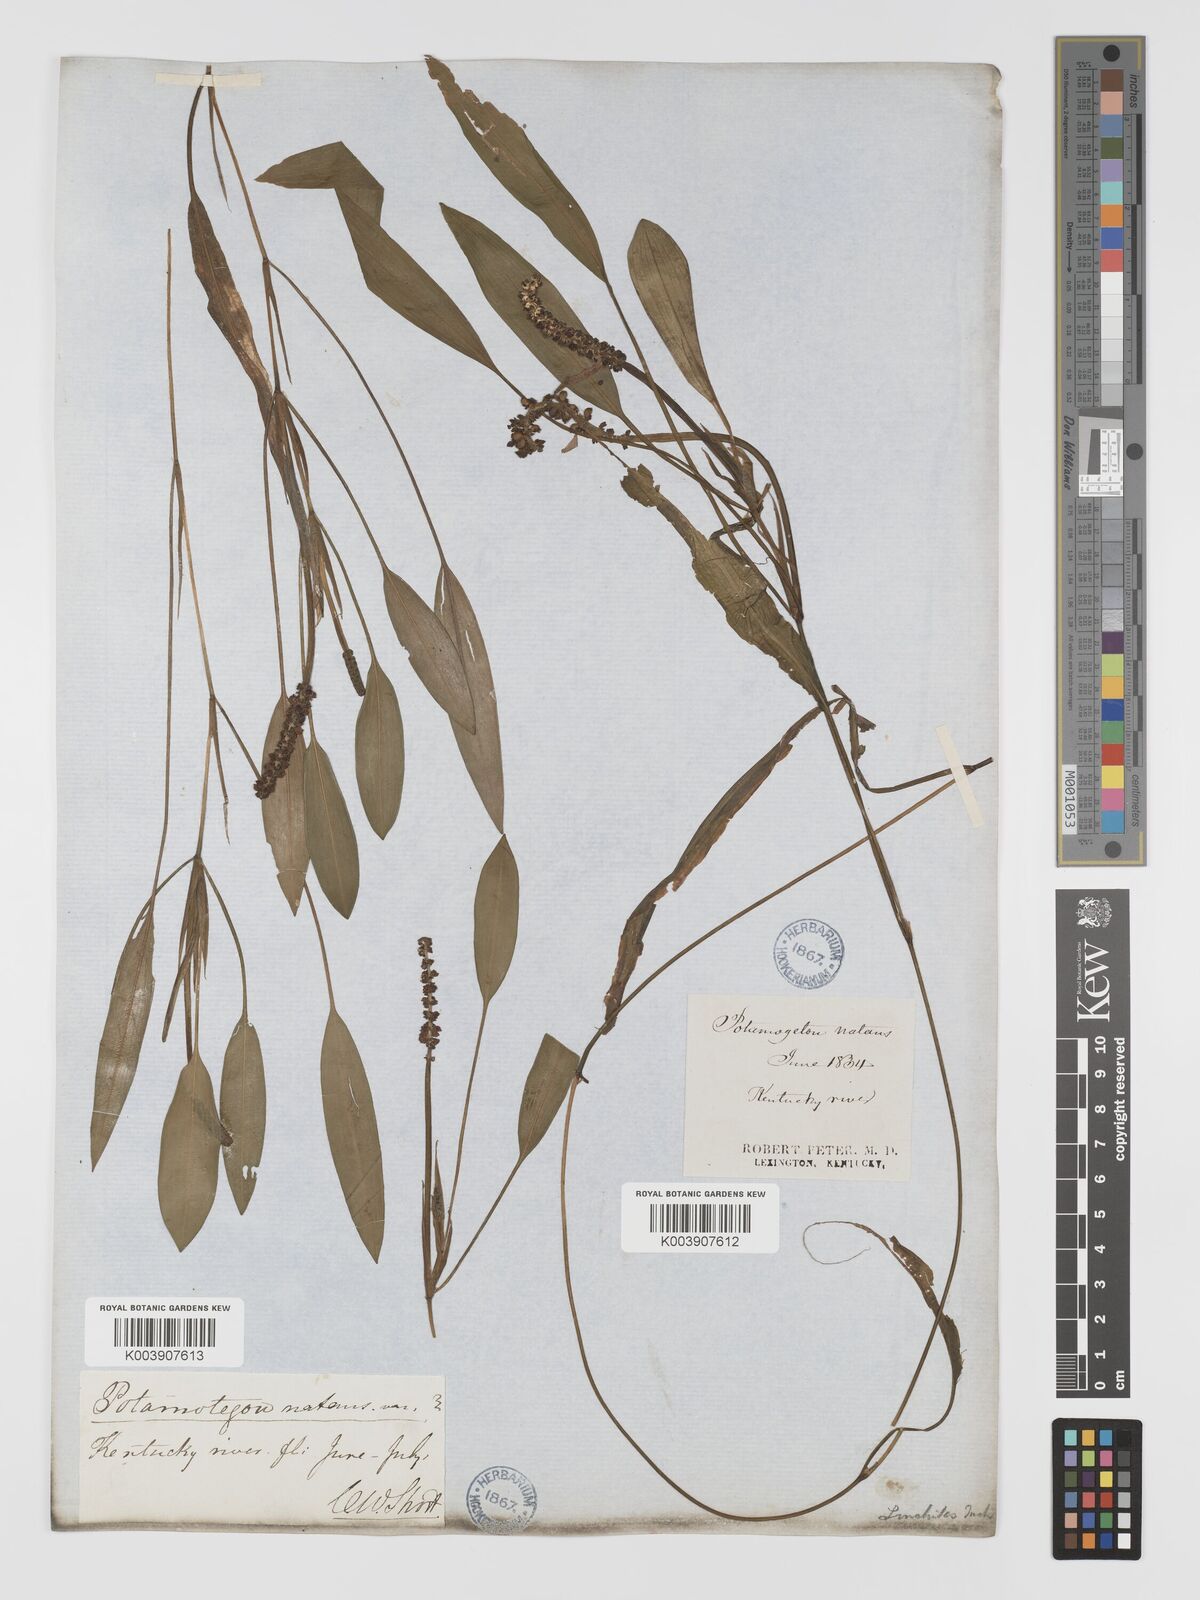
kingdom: Plantae
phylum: Tracheophyta
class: Liliopsida
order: Alismatales
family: Potamogetonaceae
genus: Potamogeton
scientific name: Potamogeton nodosus
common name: Loddon pondweed
